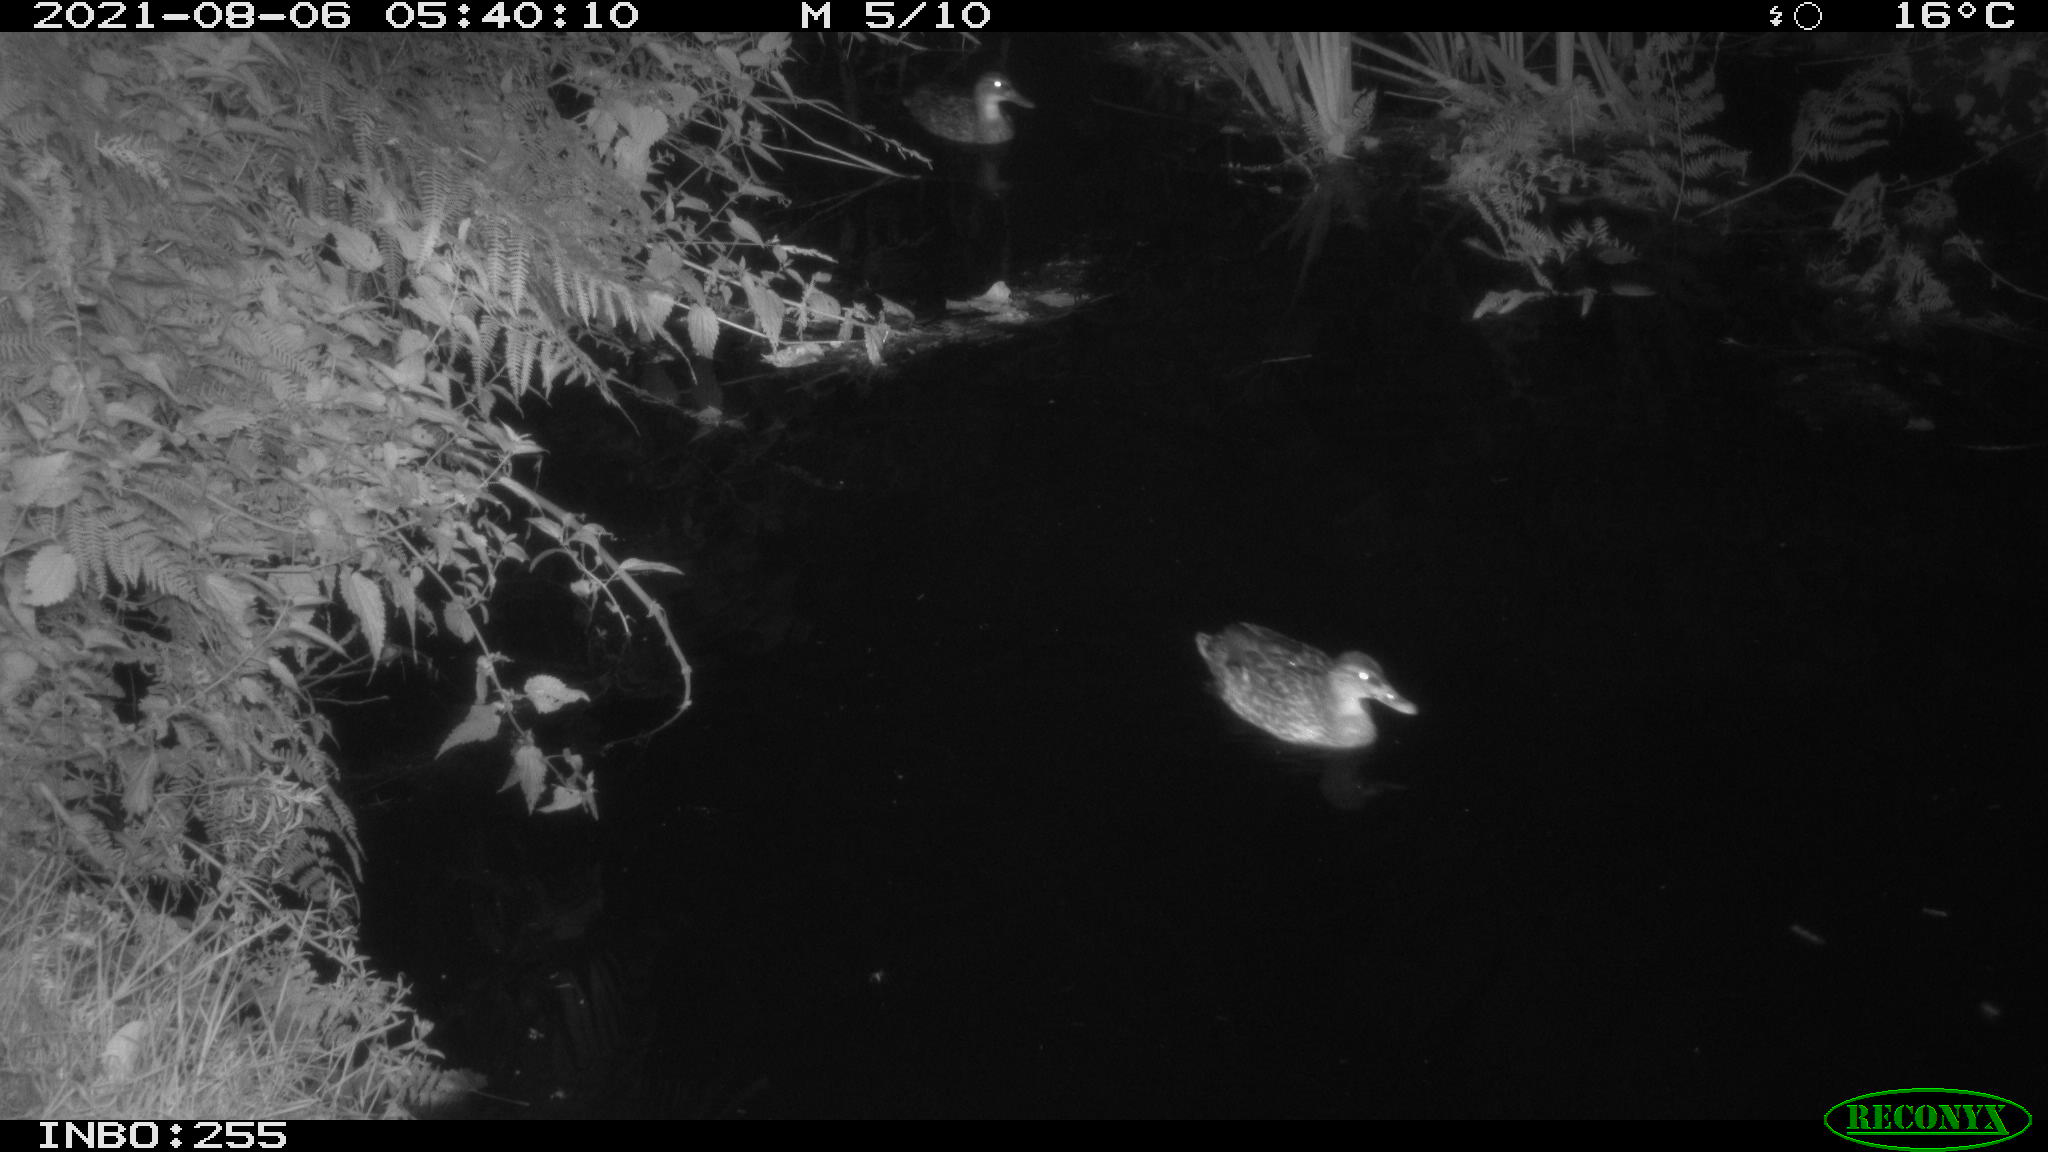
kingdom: Animalia
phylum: Chordata
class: Aves
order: Anseriformes
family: Anatidae
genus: Anas
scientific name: Anas platyrhynchos
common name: Mallard
